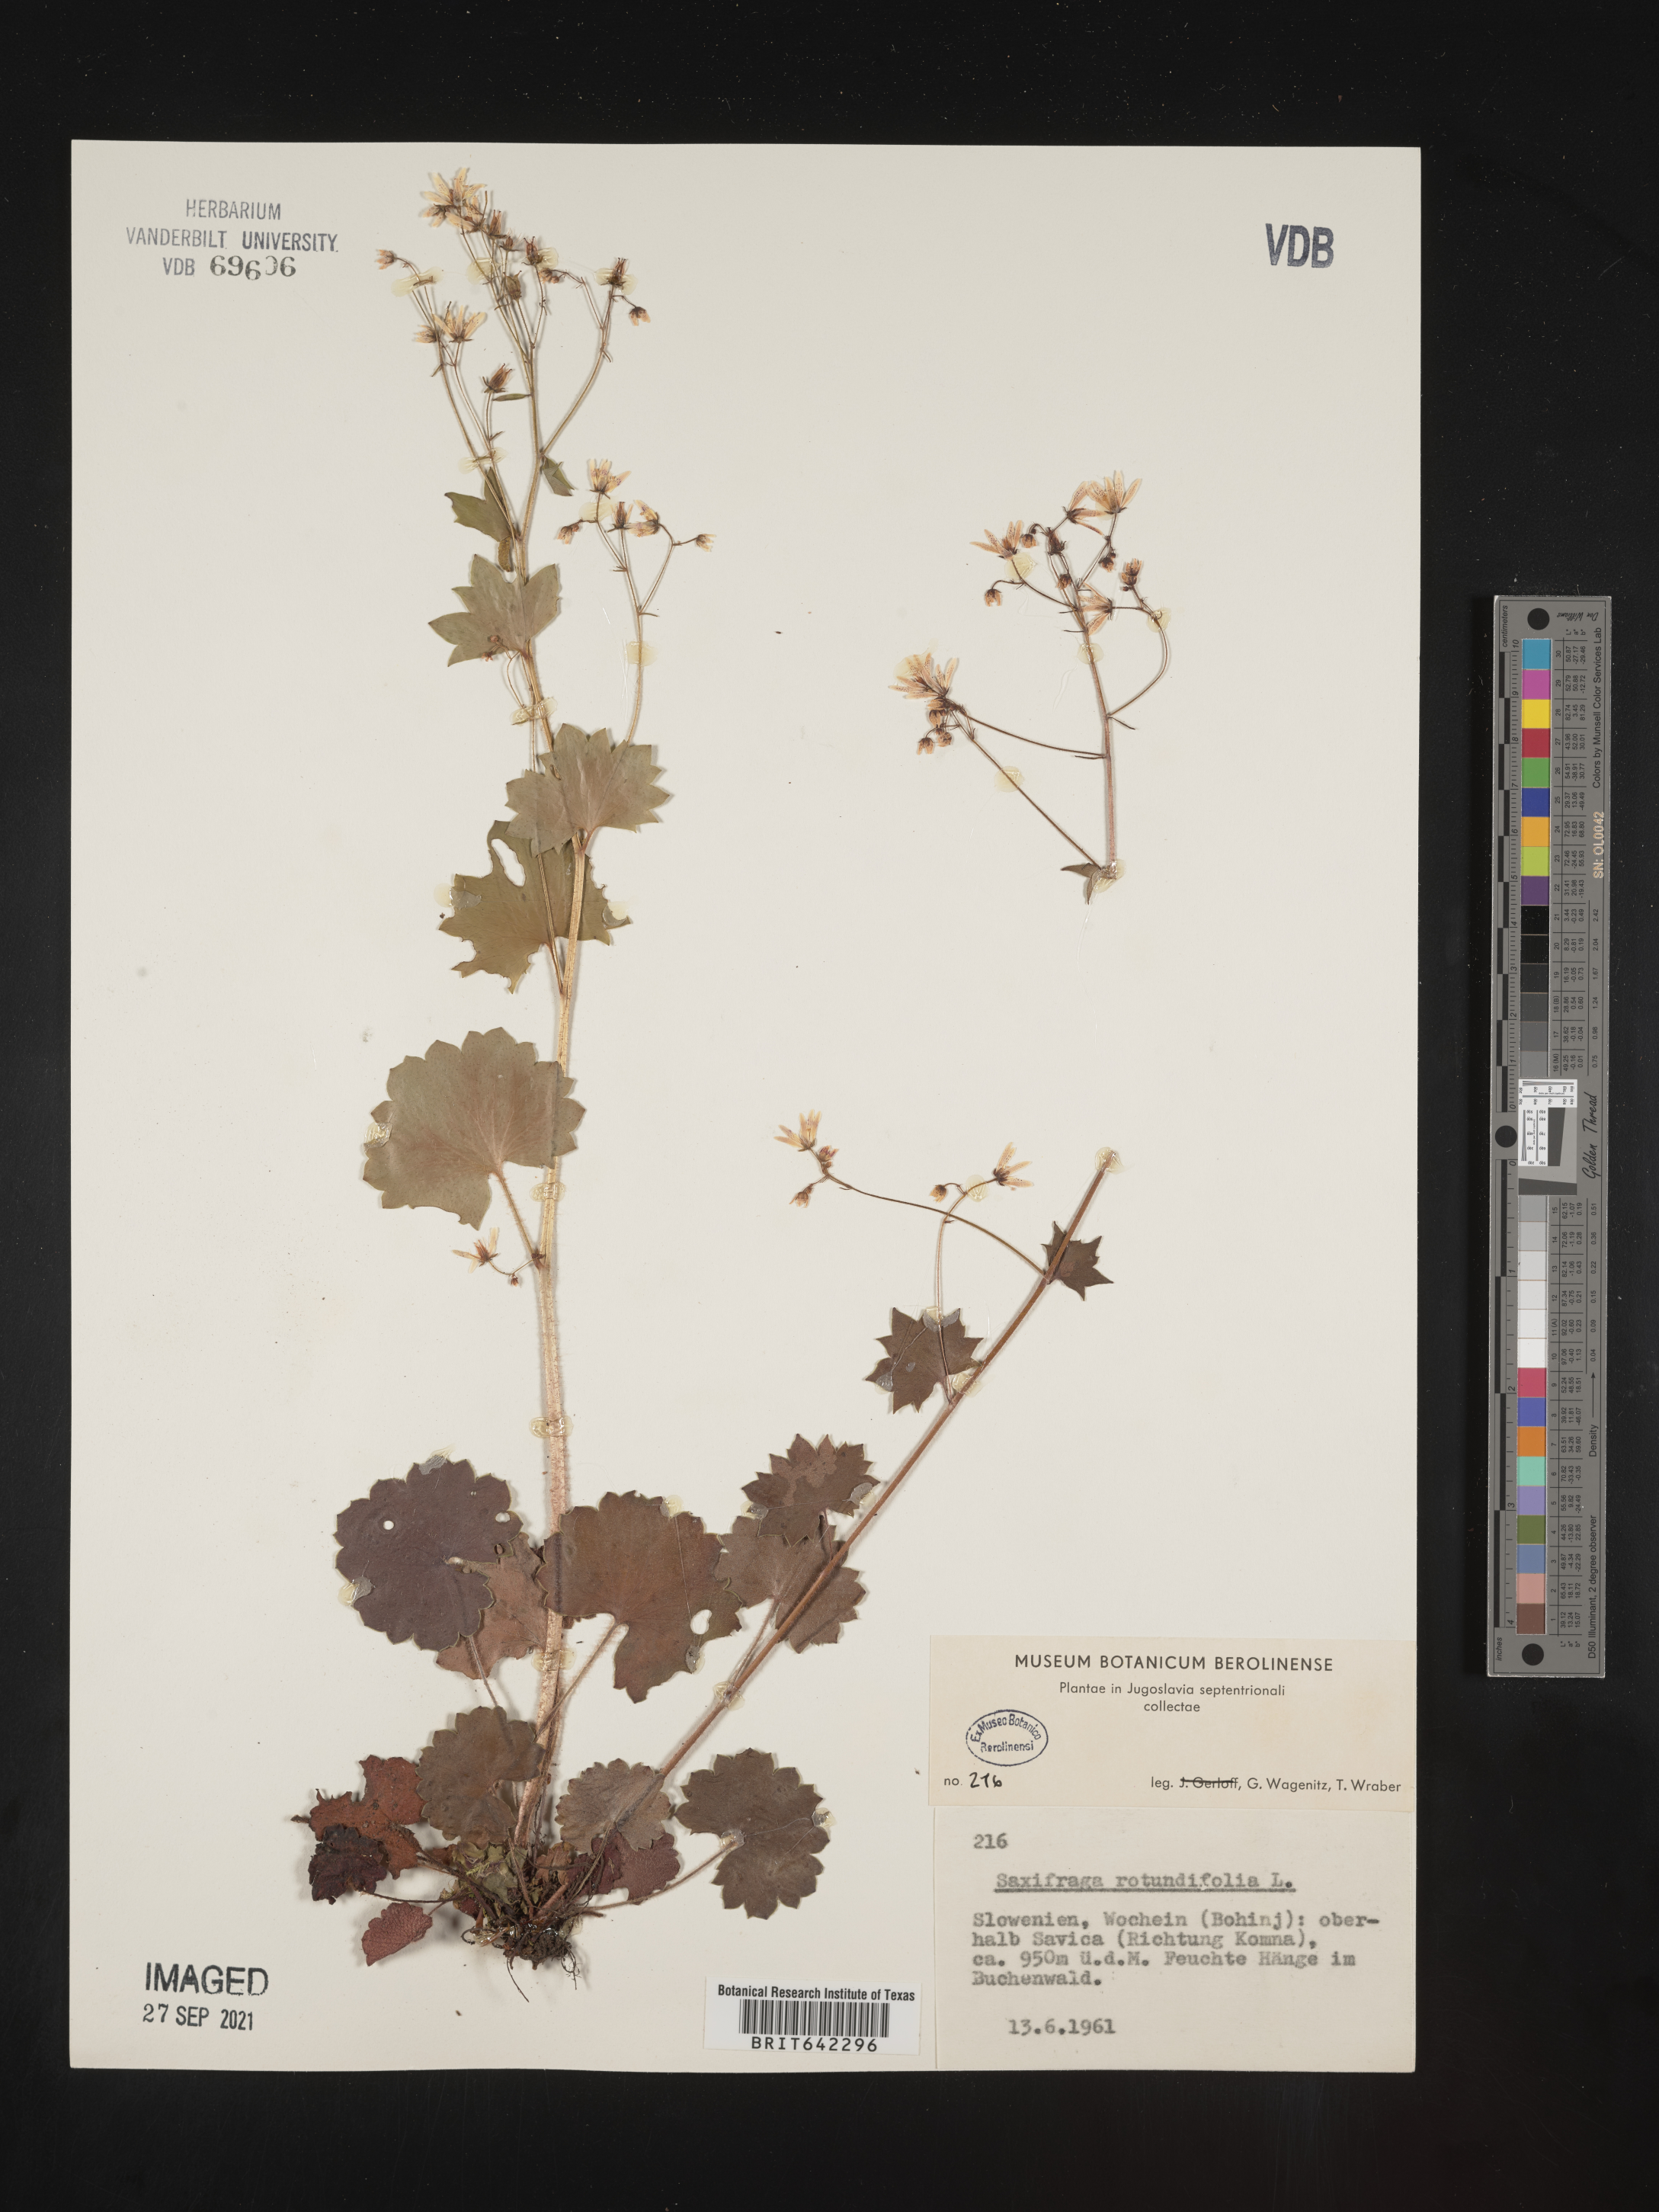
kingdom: Plantae
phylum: Tracheophyta
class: Magnoliopsida
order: Saxifragales
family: Saxifragaceae
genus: Saxifraga
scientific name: Saxifraga
